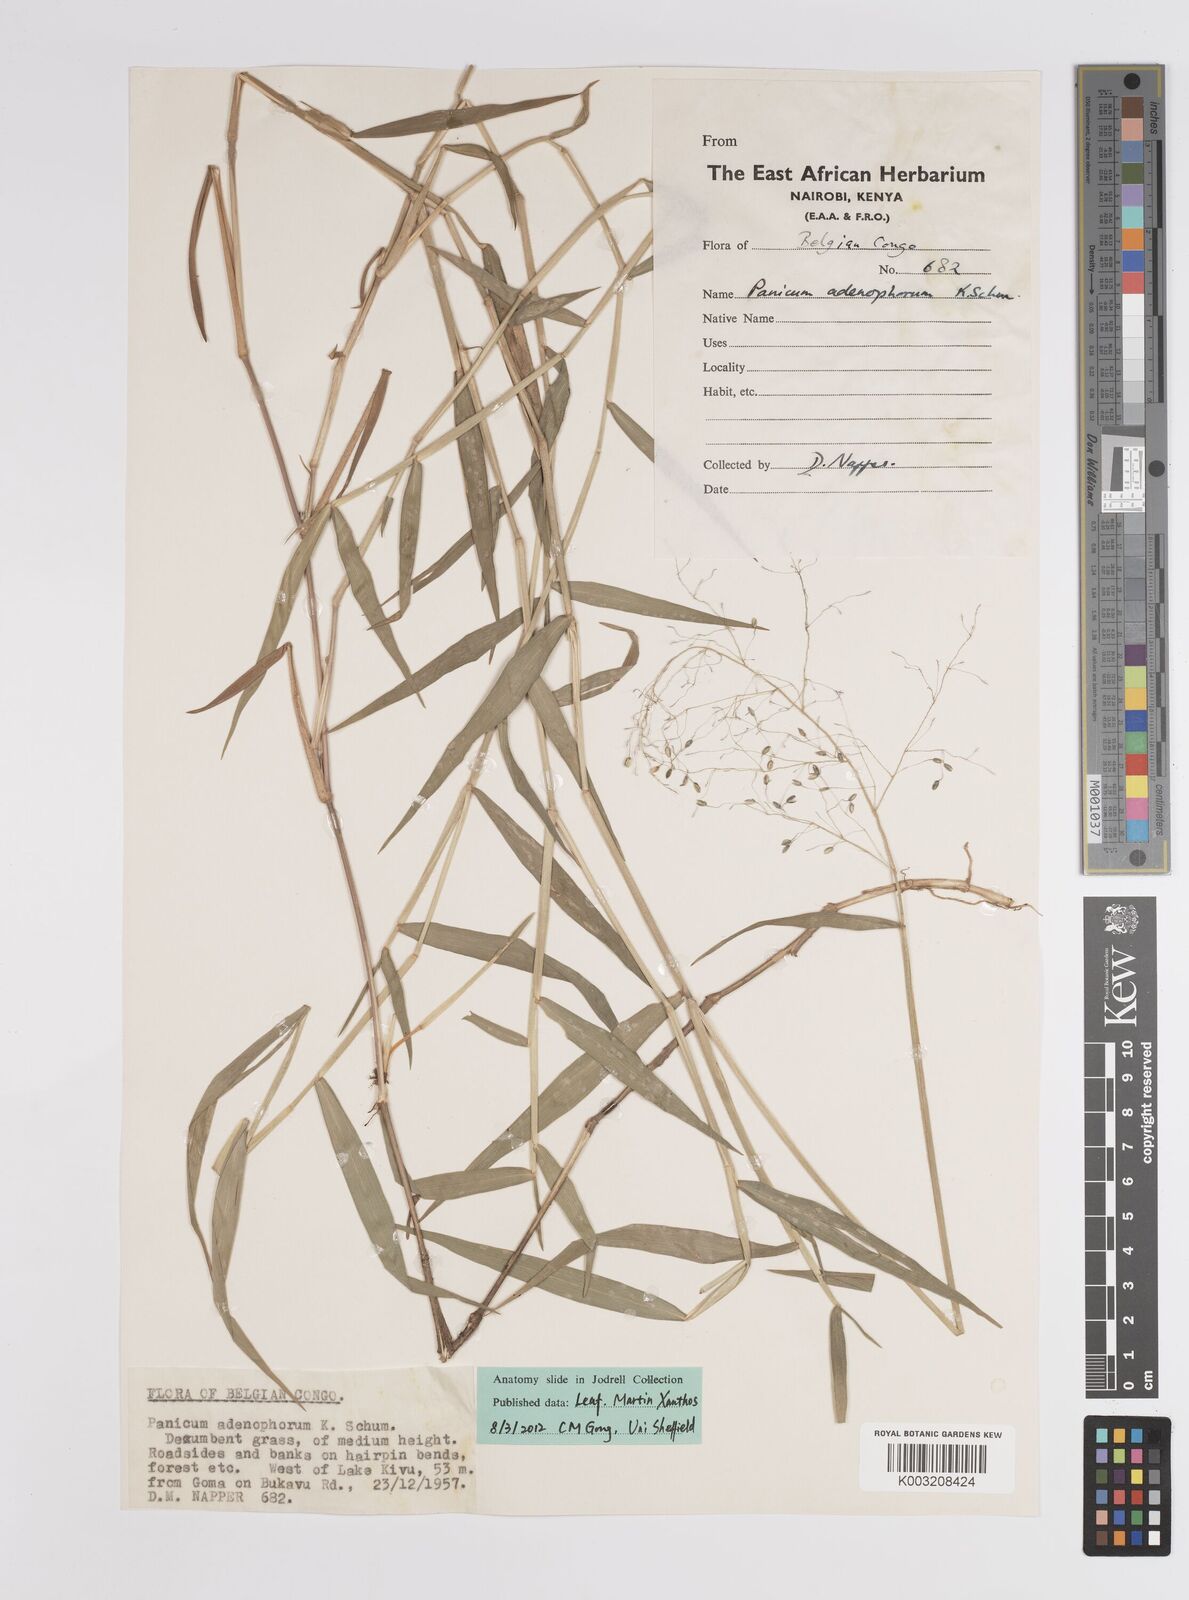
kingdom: Plantae
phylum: Tracheophyta
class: Liliopsida
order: Poales
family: Poaceae
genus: Adenochloa
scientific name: Adenochloa adenophora
